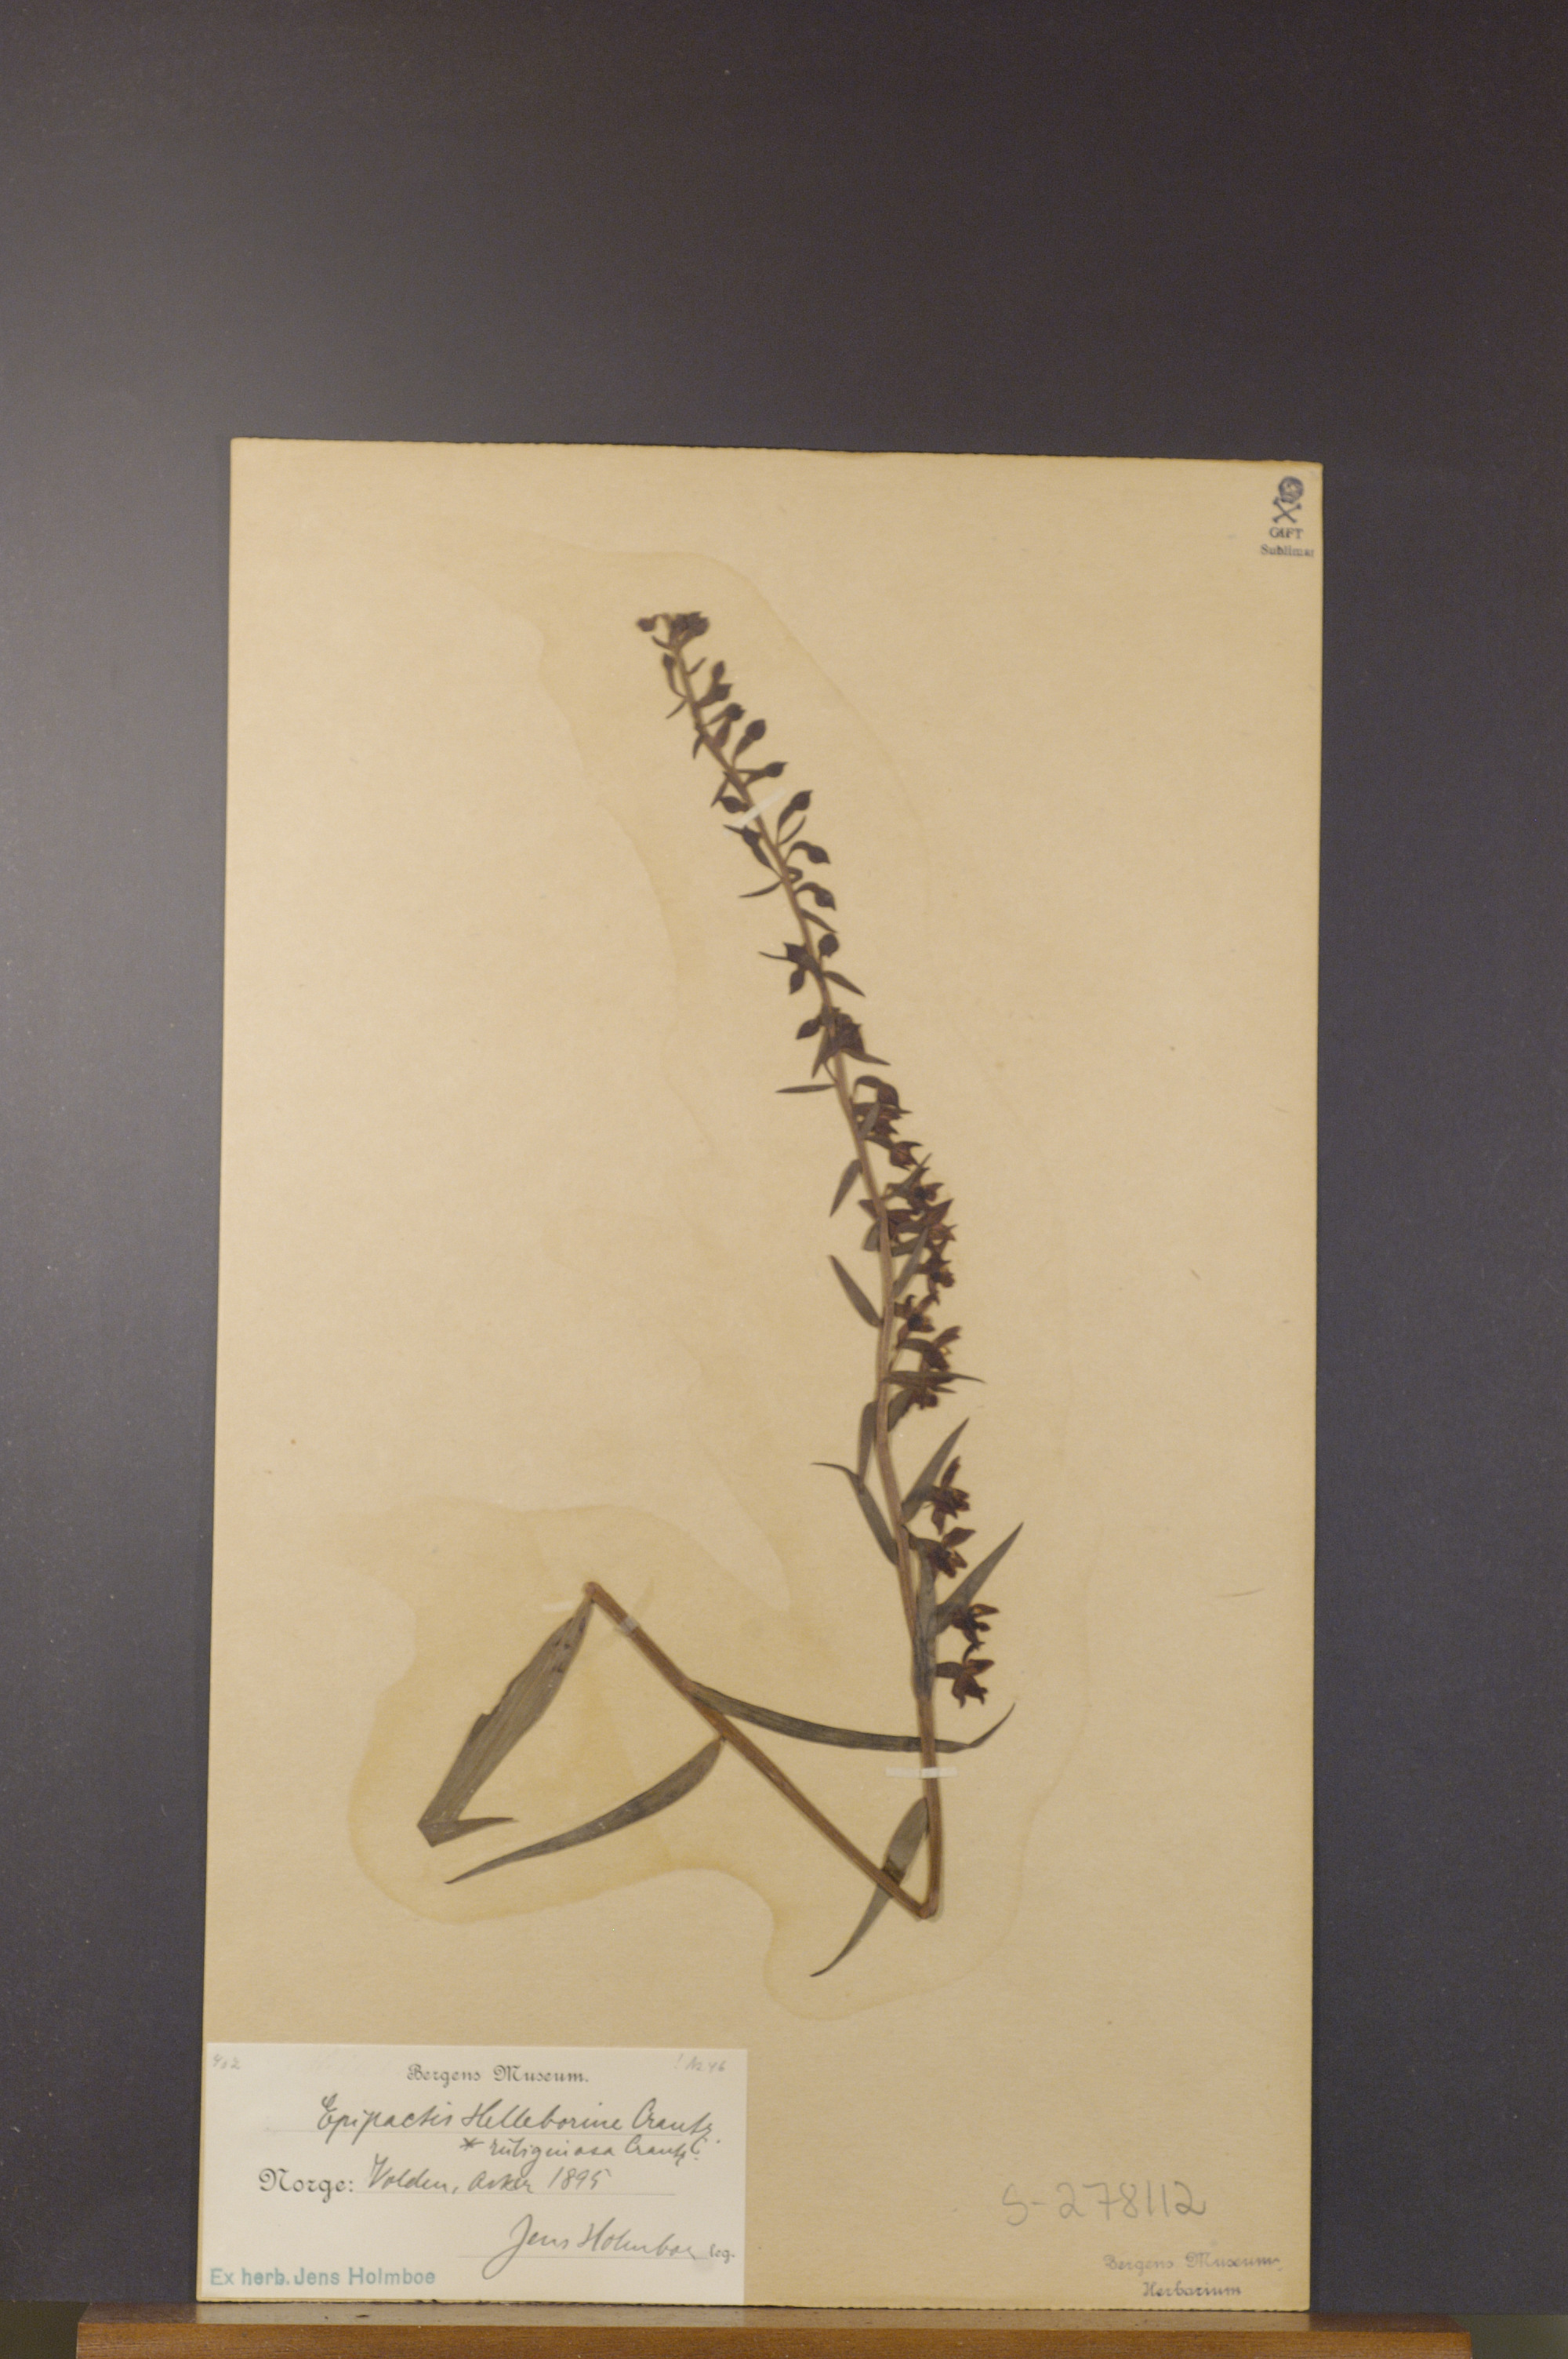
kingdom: Plantae
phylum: Tracheophyta
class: Liliopsida
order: Asparagales
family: Orchidaceae
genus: Epipactis
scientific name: Epipactis helleborine
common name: Broad-leaved helleborine
